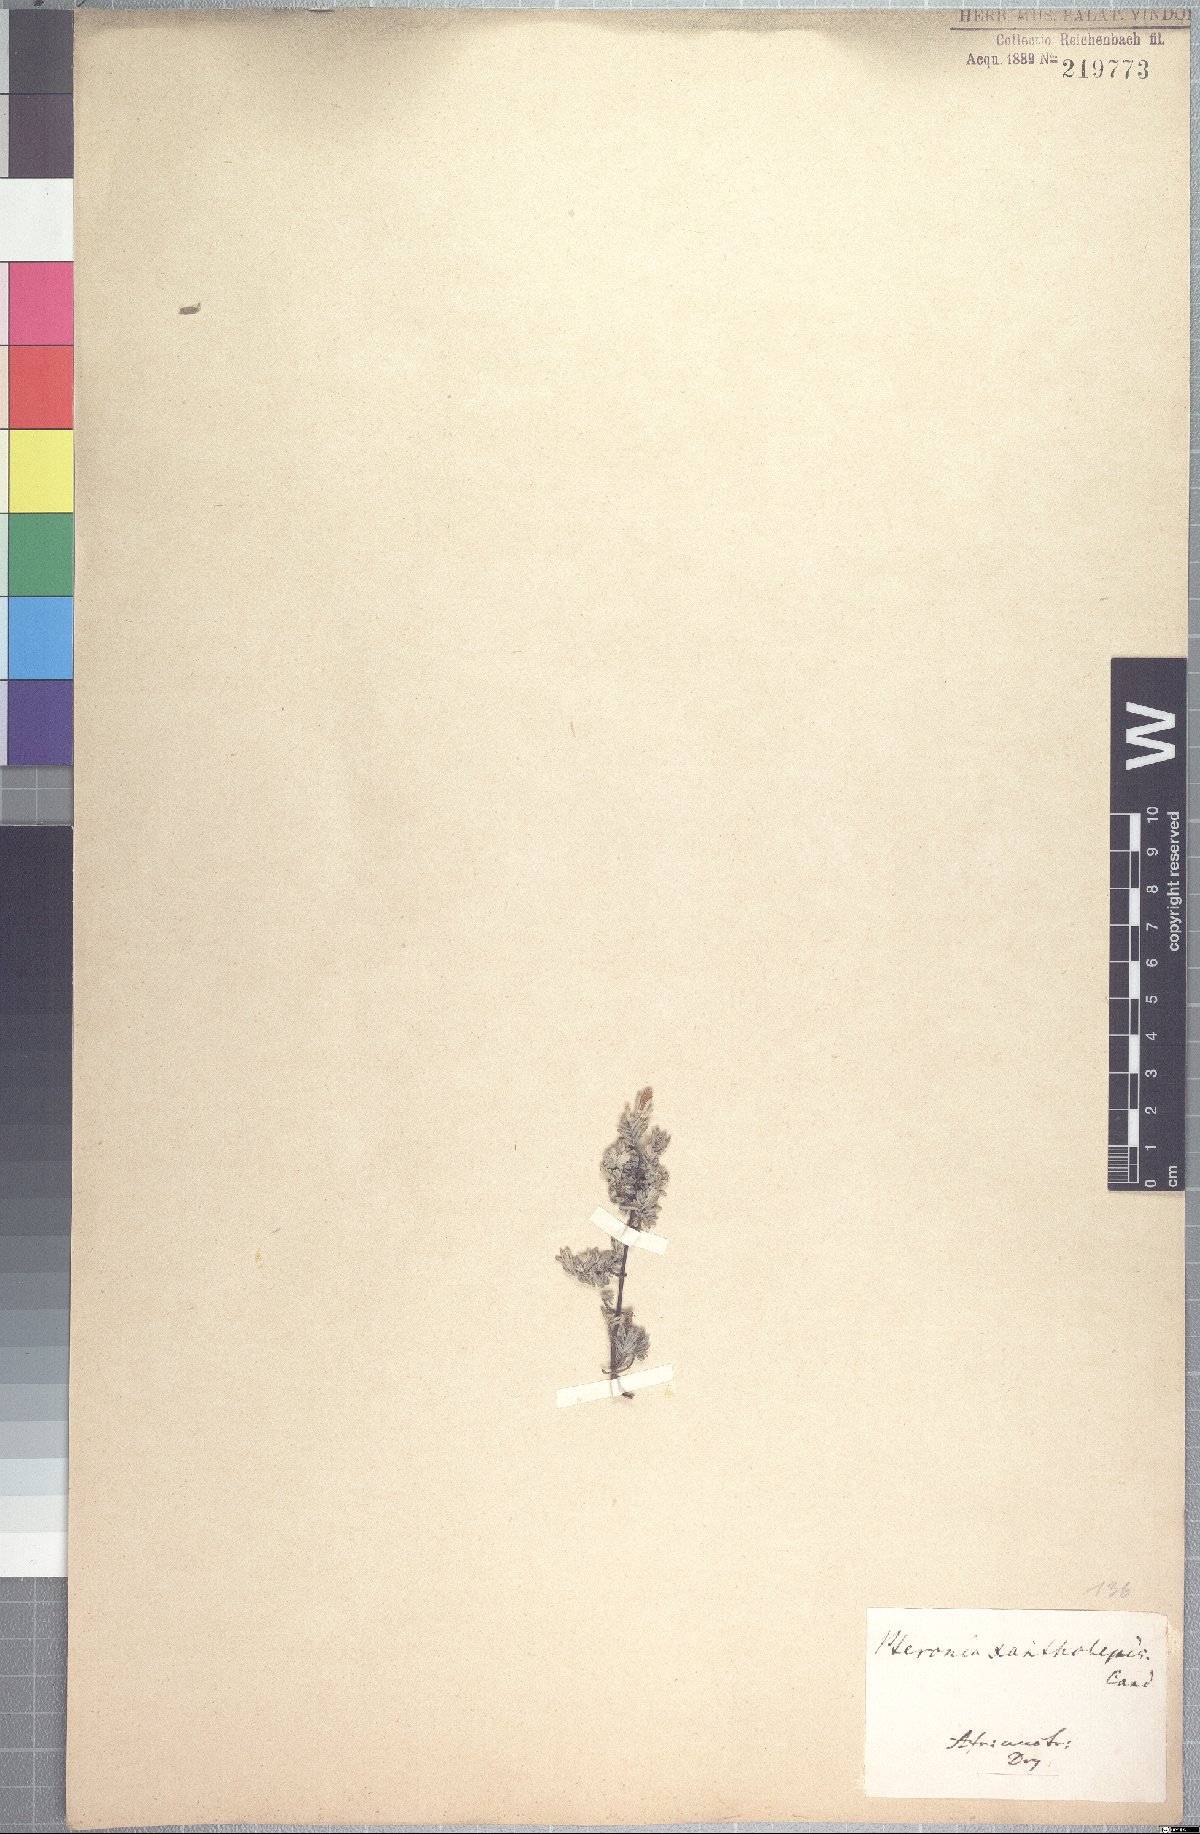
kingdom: Plantae
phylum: Tracheophyta
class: Magnoliopsida
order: Asterales
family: Asteraceae
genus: Pteronia
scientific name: Pteronia incana
